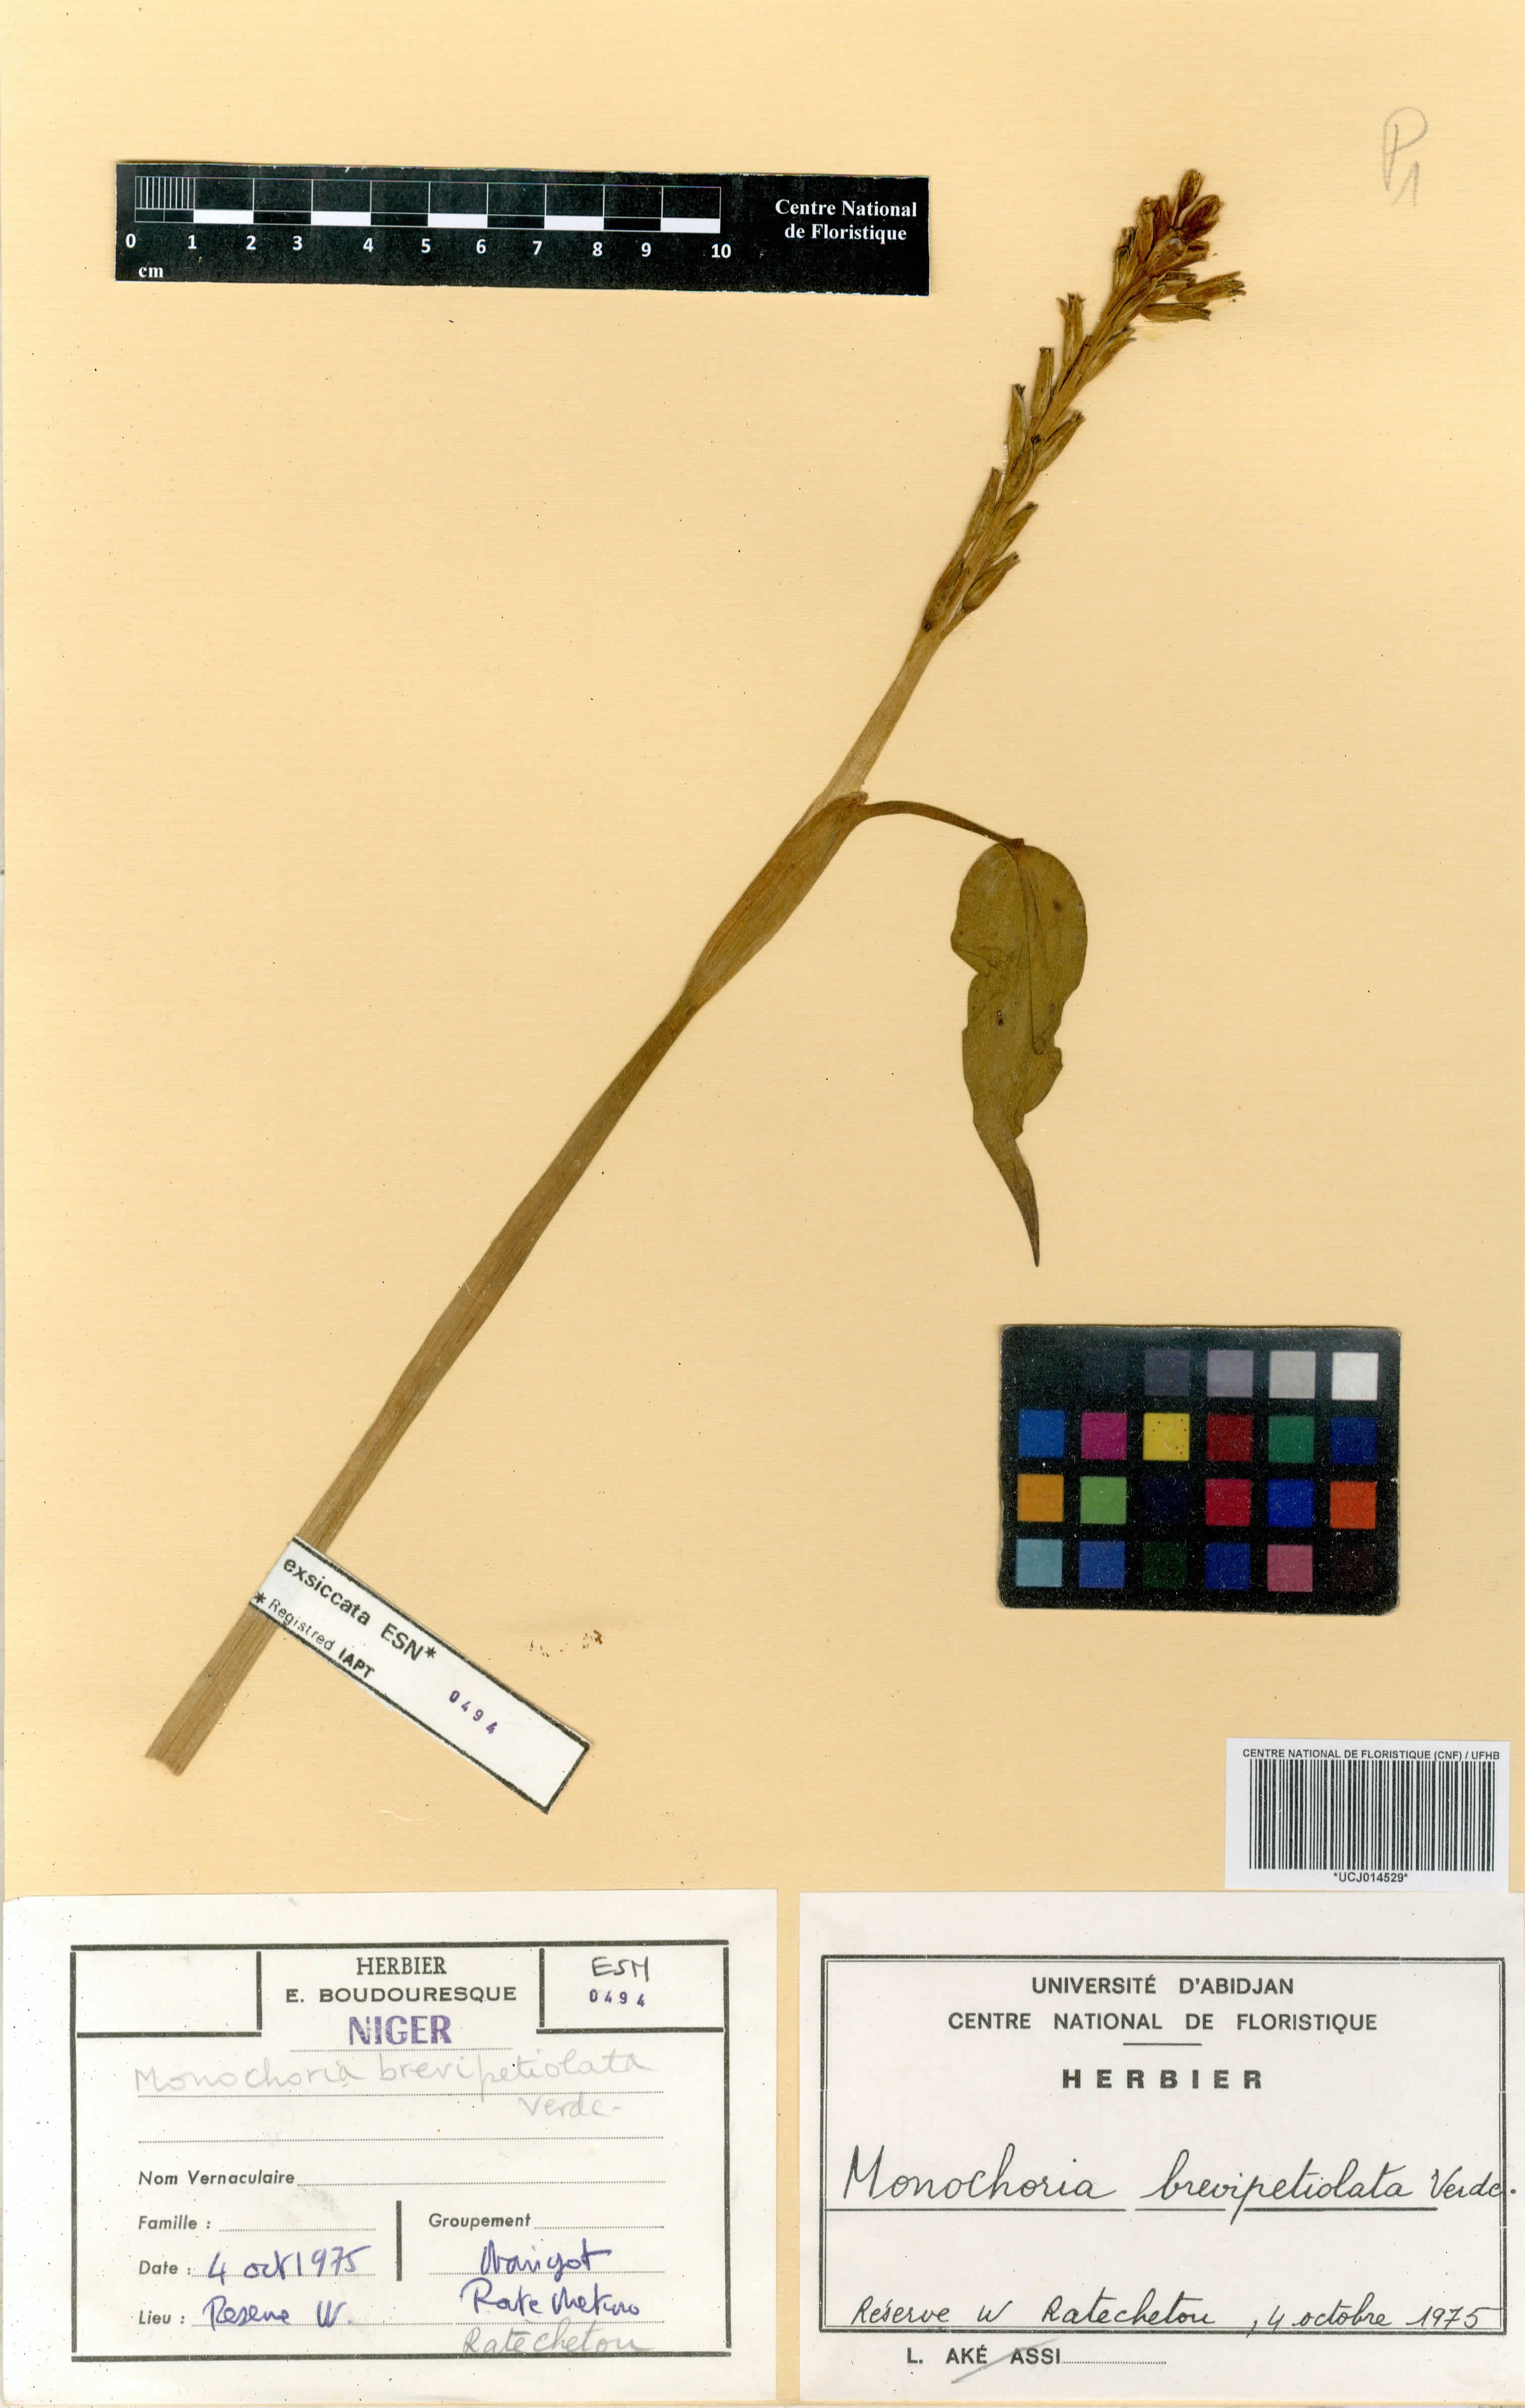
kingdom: Plantae
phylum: Tracheophyta
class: Liliopsida
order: Commelinales
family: Pontederiaceae
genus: Pontederia
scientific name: Pontederia brevipetiolata
